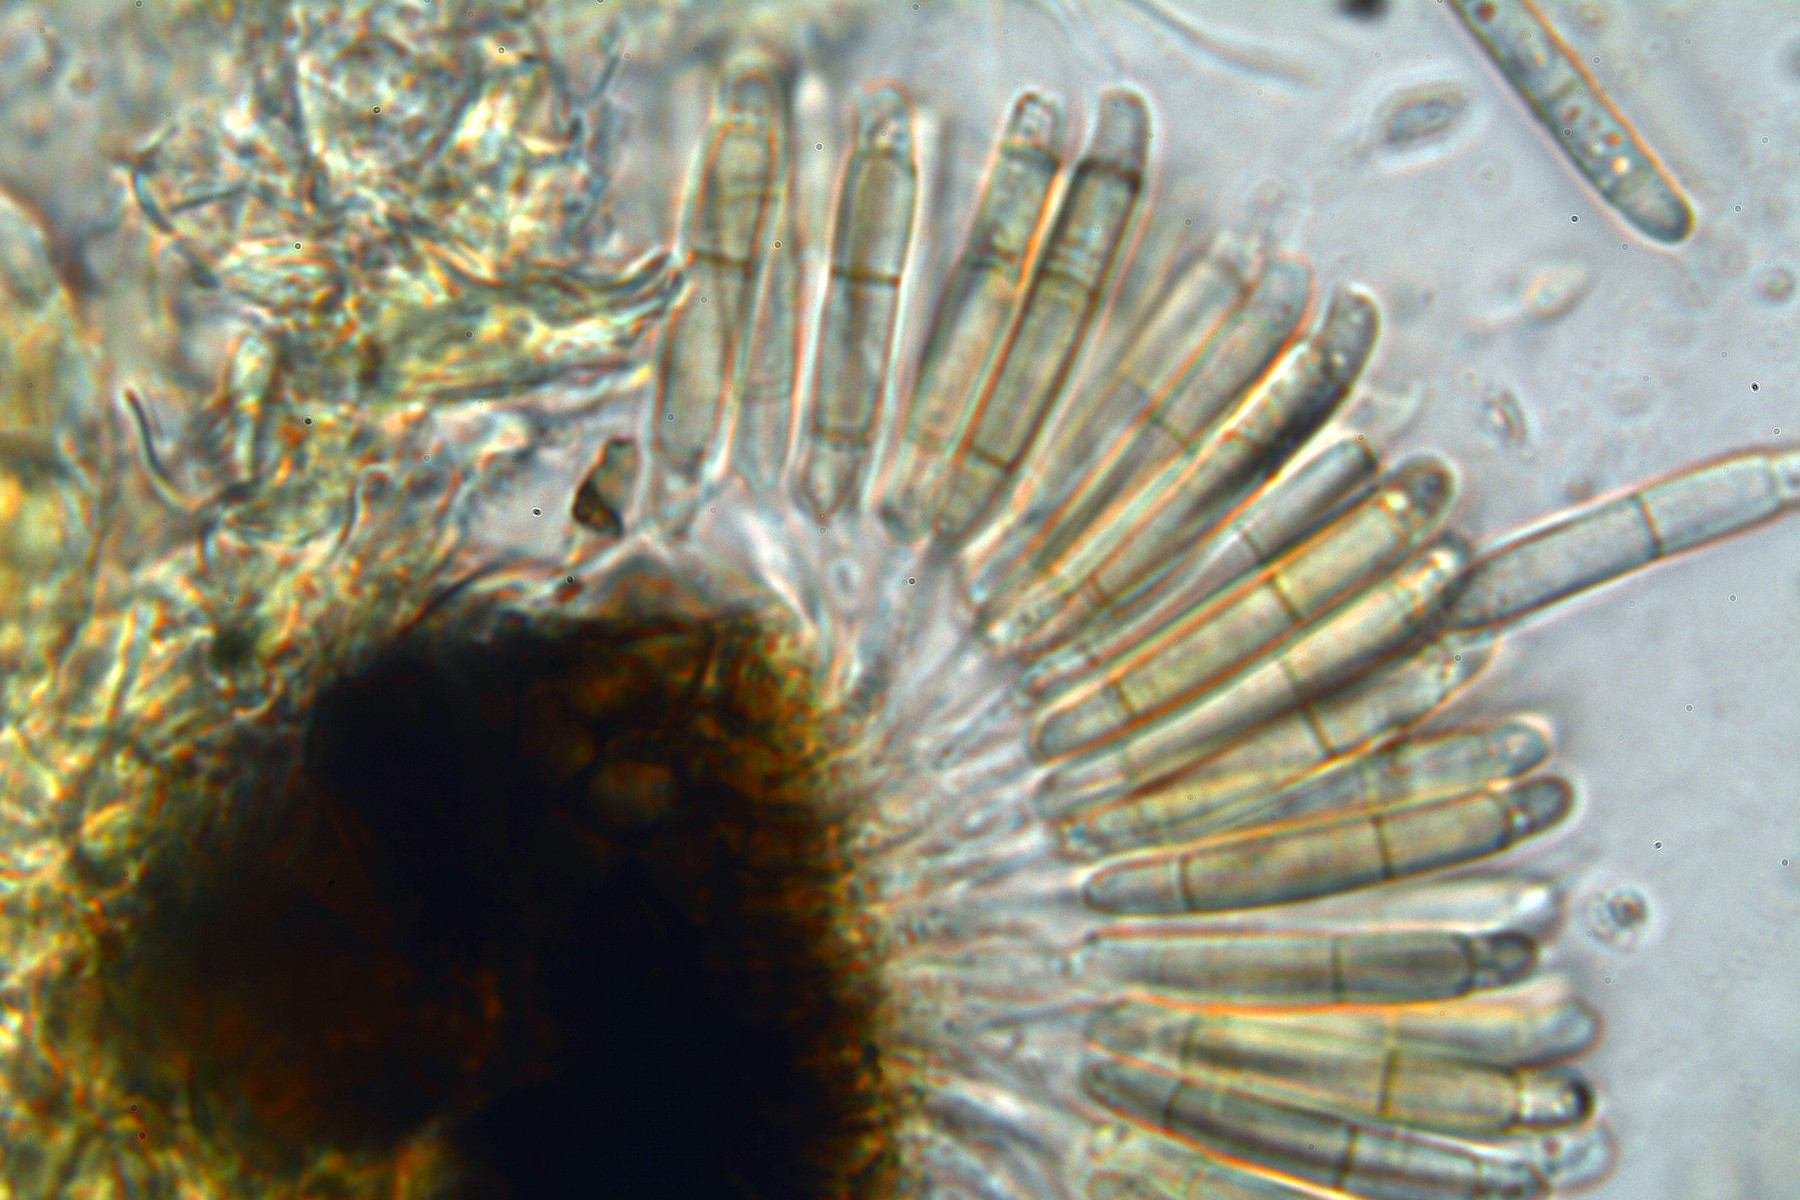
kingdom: Fungi
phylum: Ascomycota
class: Sordariomycetes
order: Amphisphaeriales
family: Discosiaceae
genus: Discosia
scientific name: Discosia artocreas
